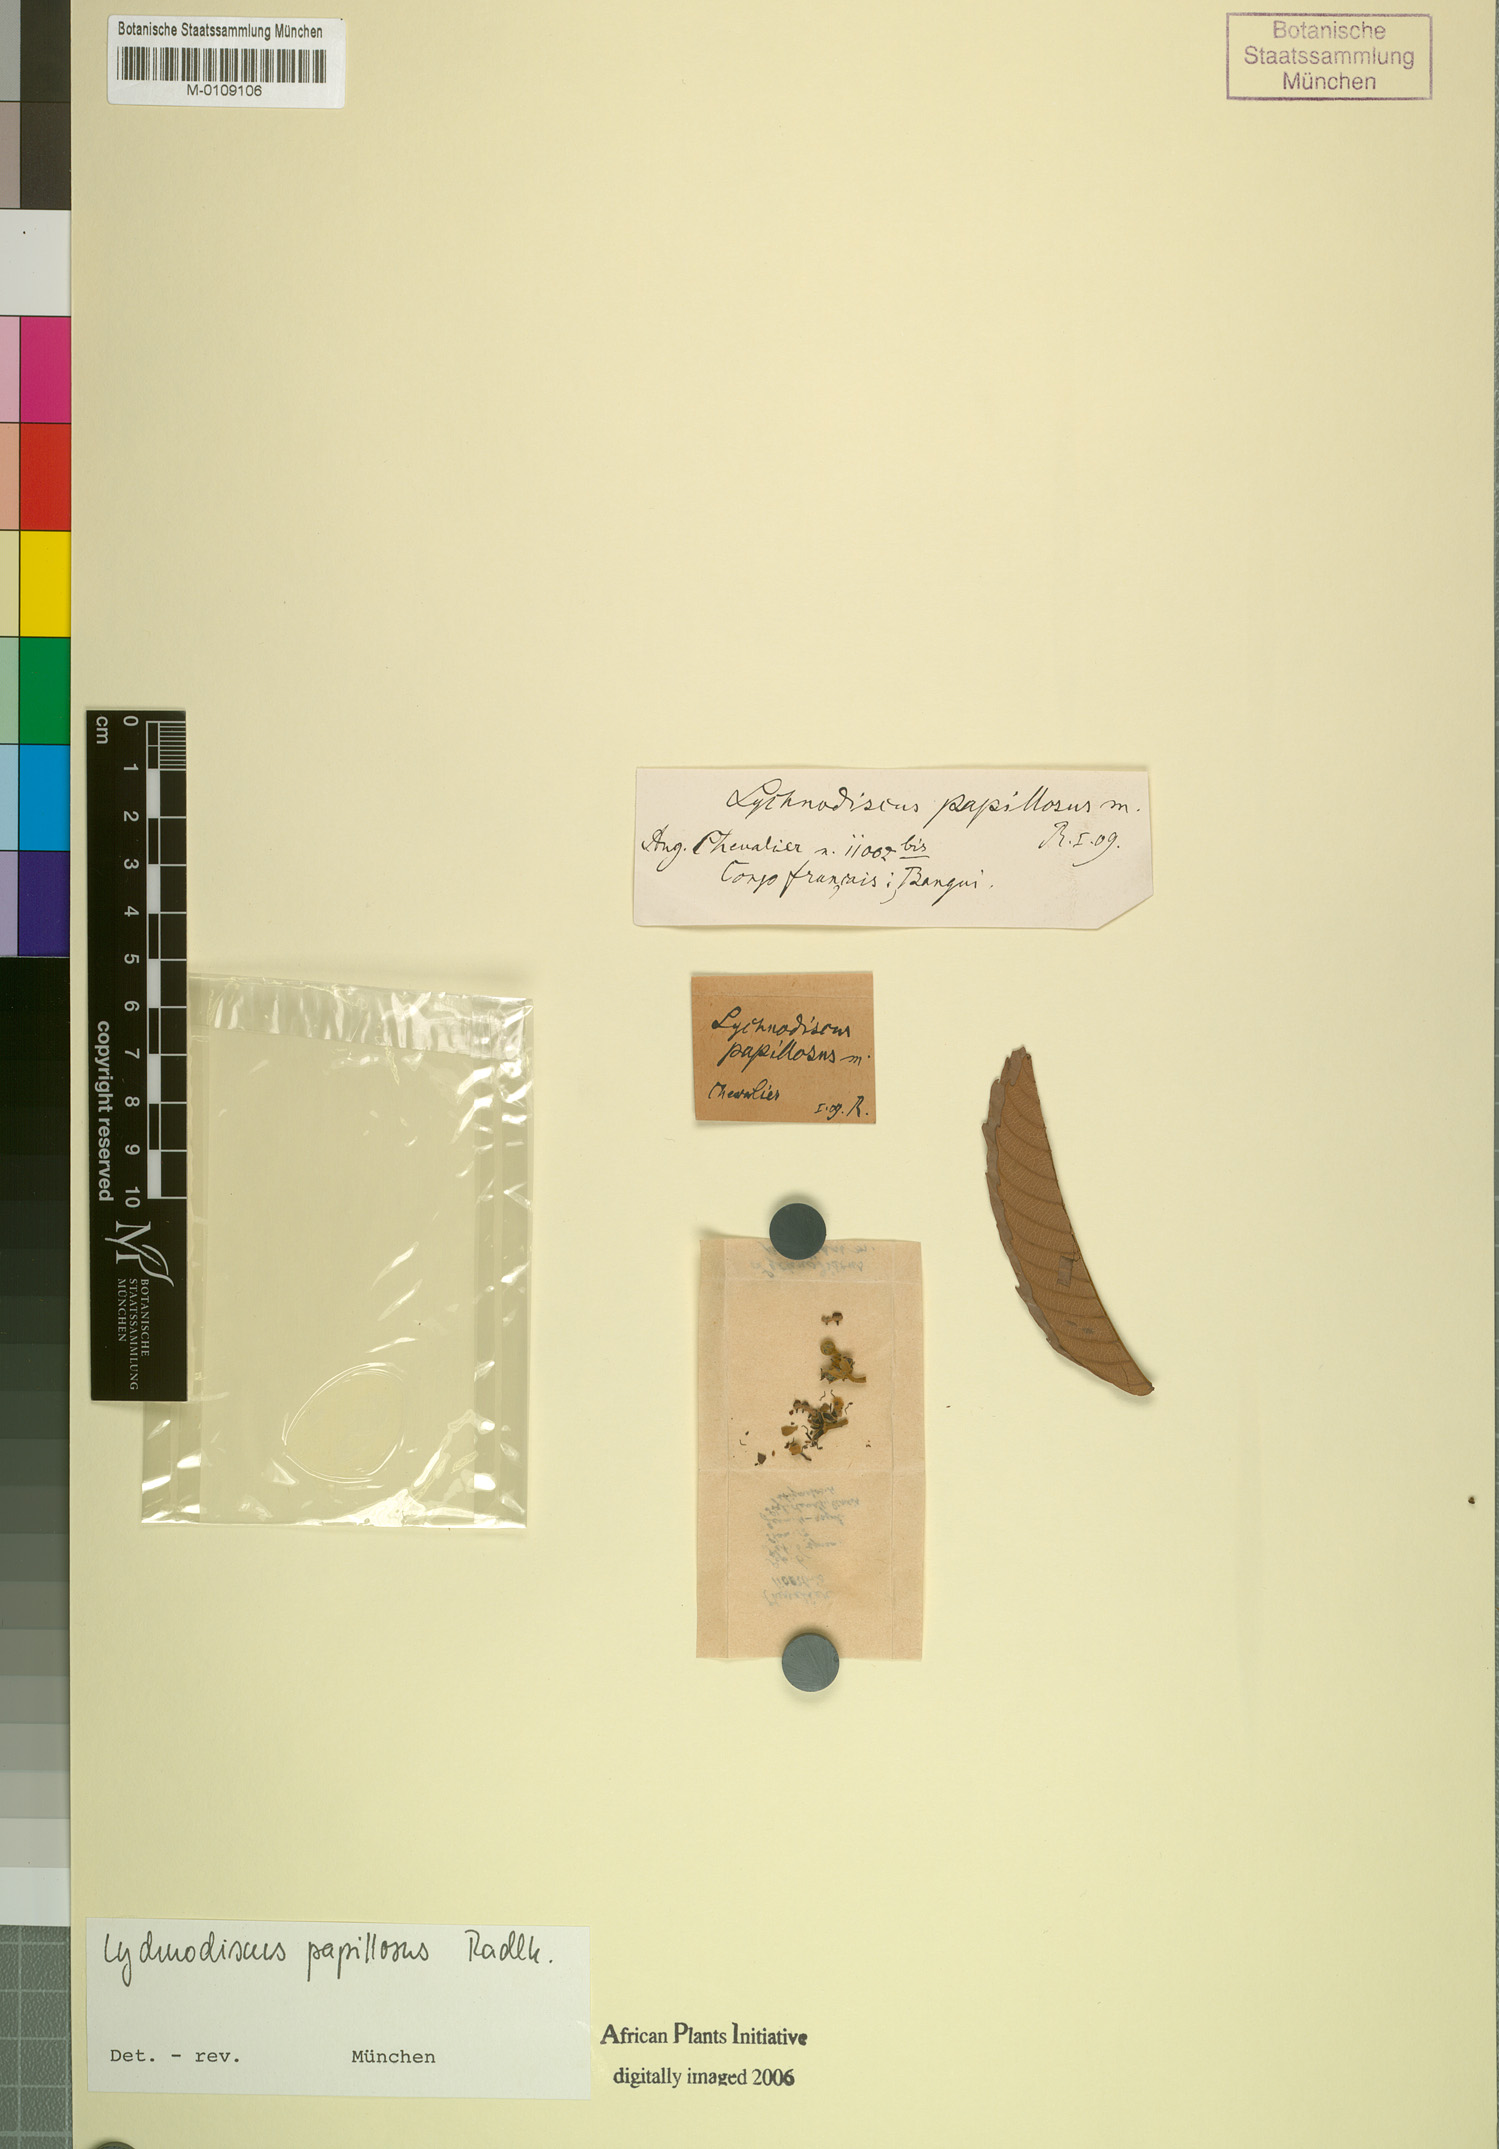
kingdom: Plantae
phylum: Tracheophyta
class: Magnoliopsida
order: Sapindales
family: Sapindaceae
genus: Lychnodiscus
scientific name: Lychnodiscus papillosus
